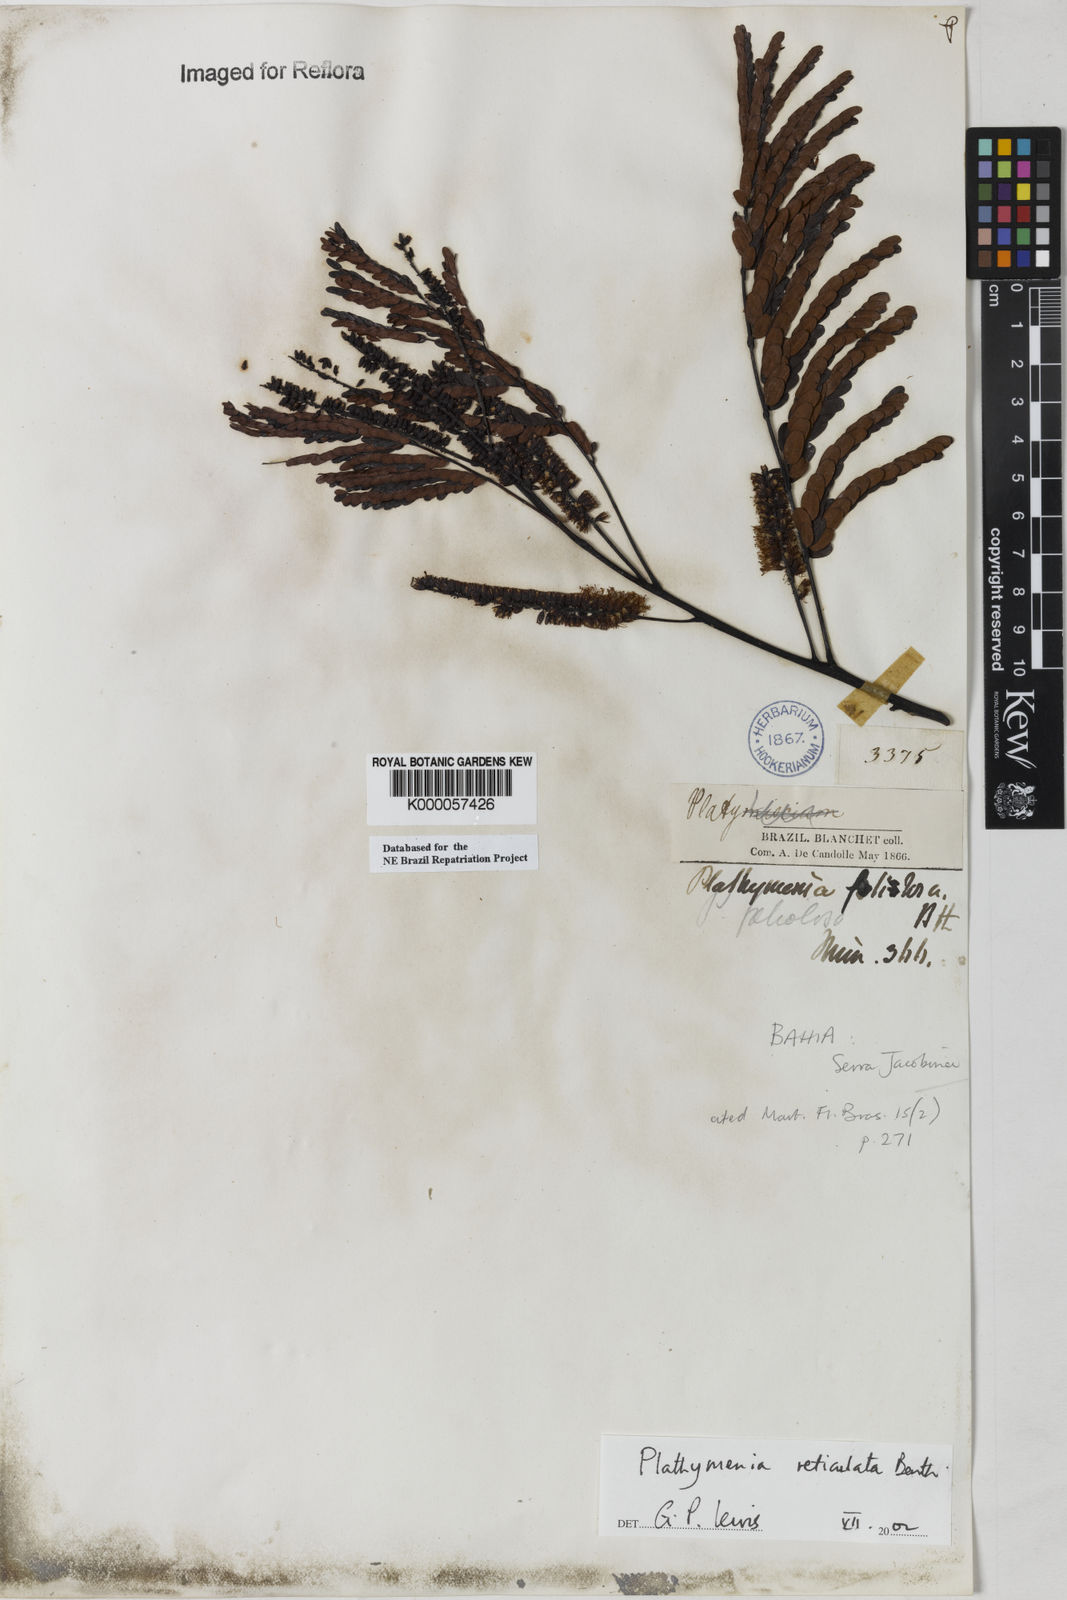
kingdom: Plantae
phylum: Tracheophyta
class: Magnoliopsida
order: Fabales
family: Fabaceae
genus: Plathymenia
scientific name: Plathymenia reticulata
